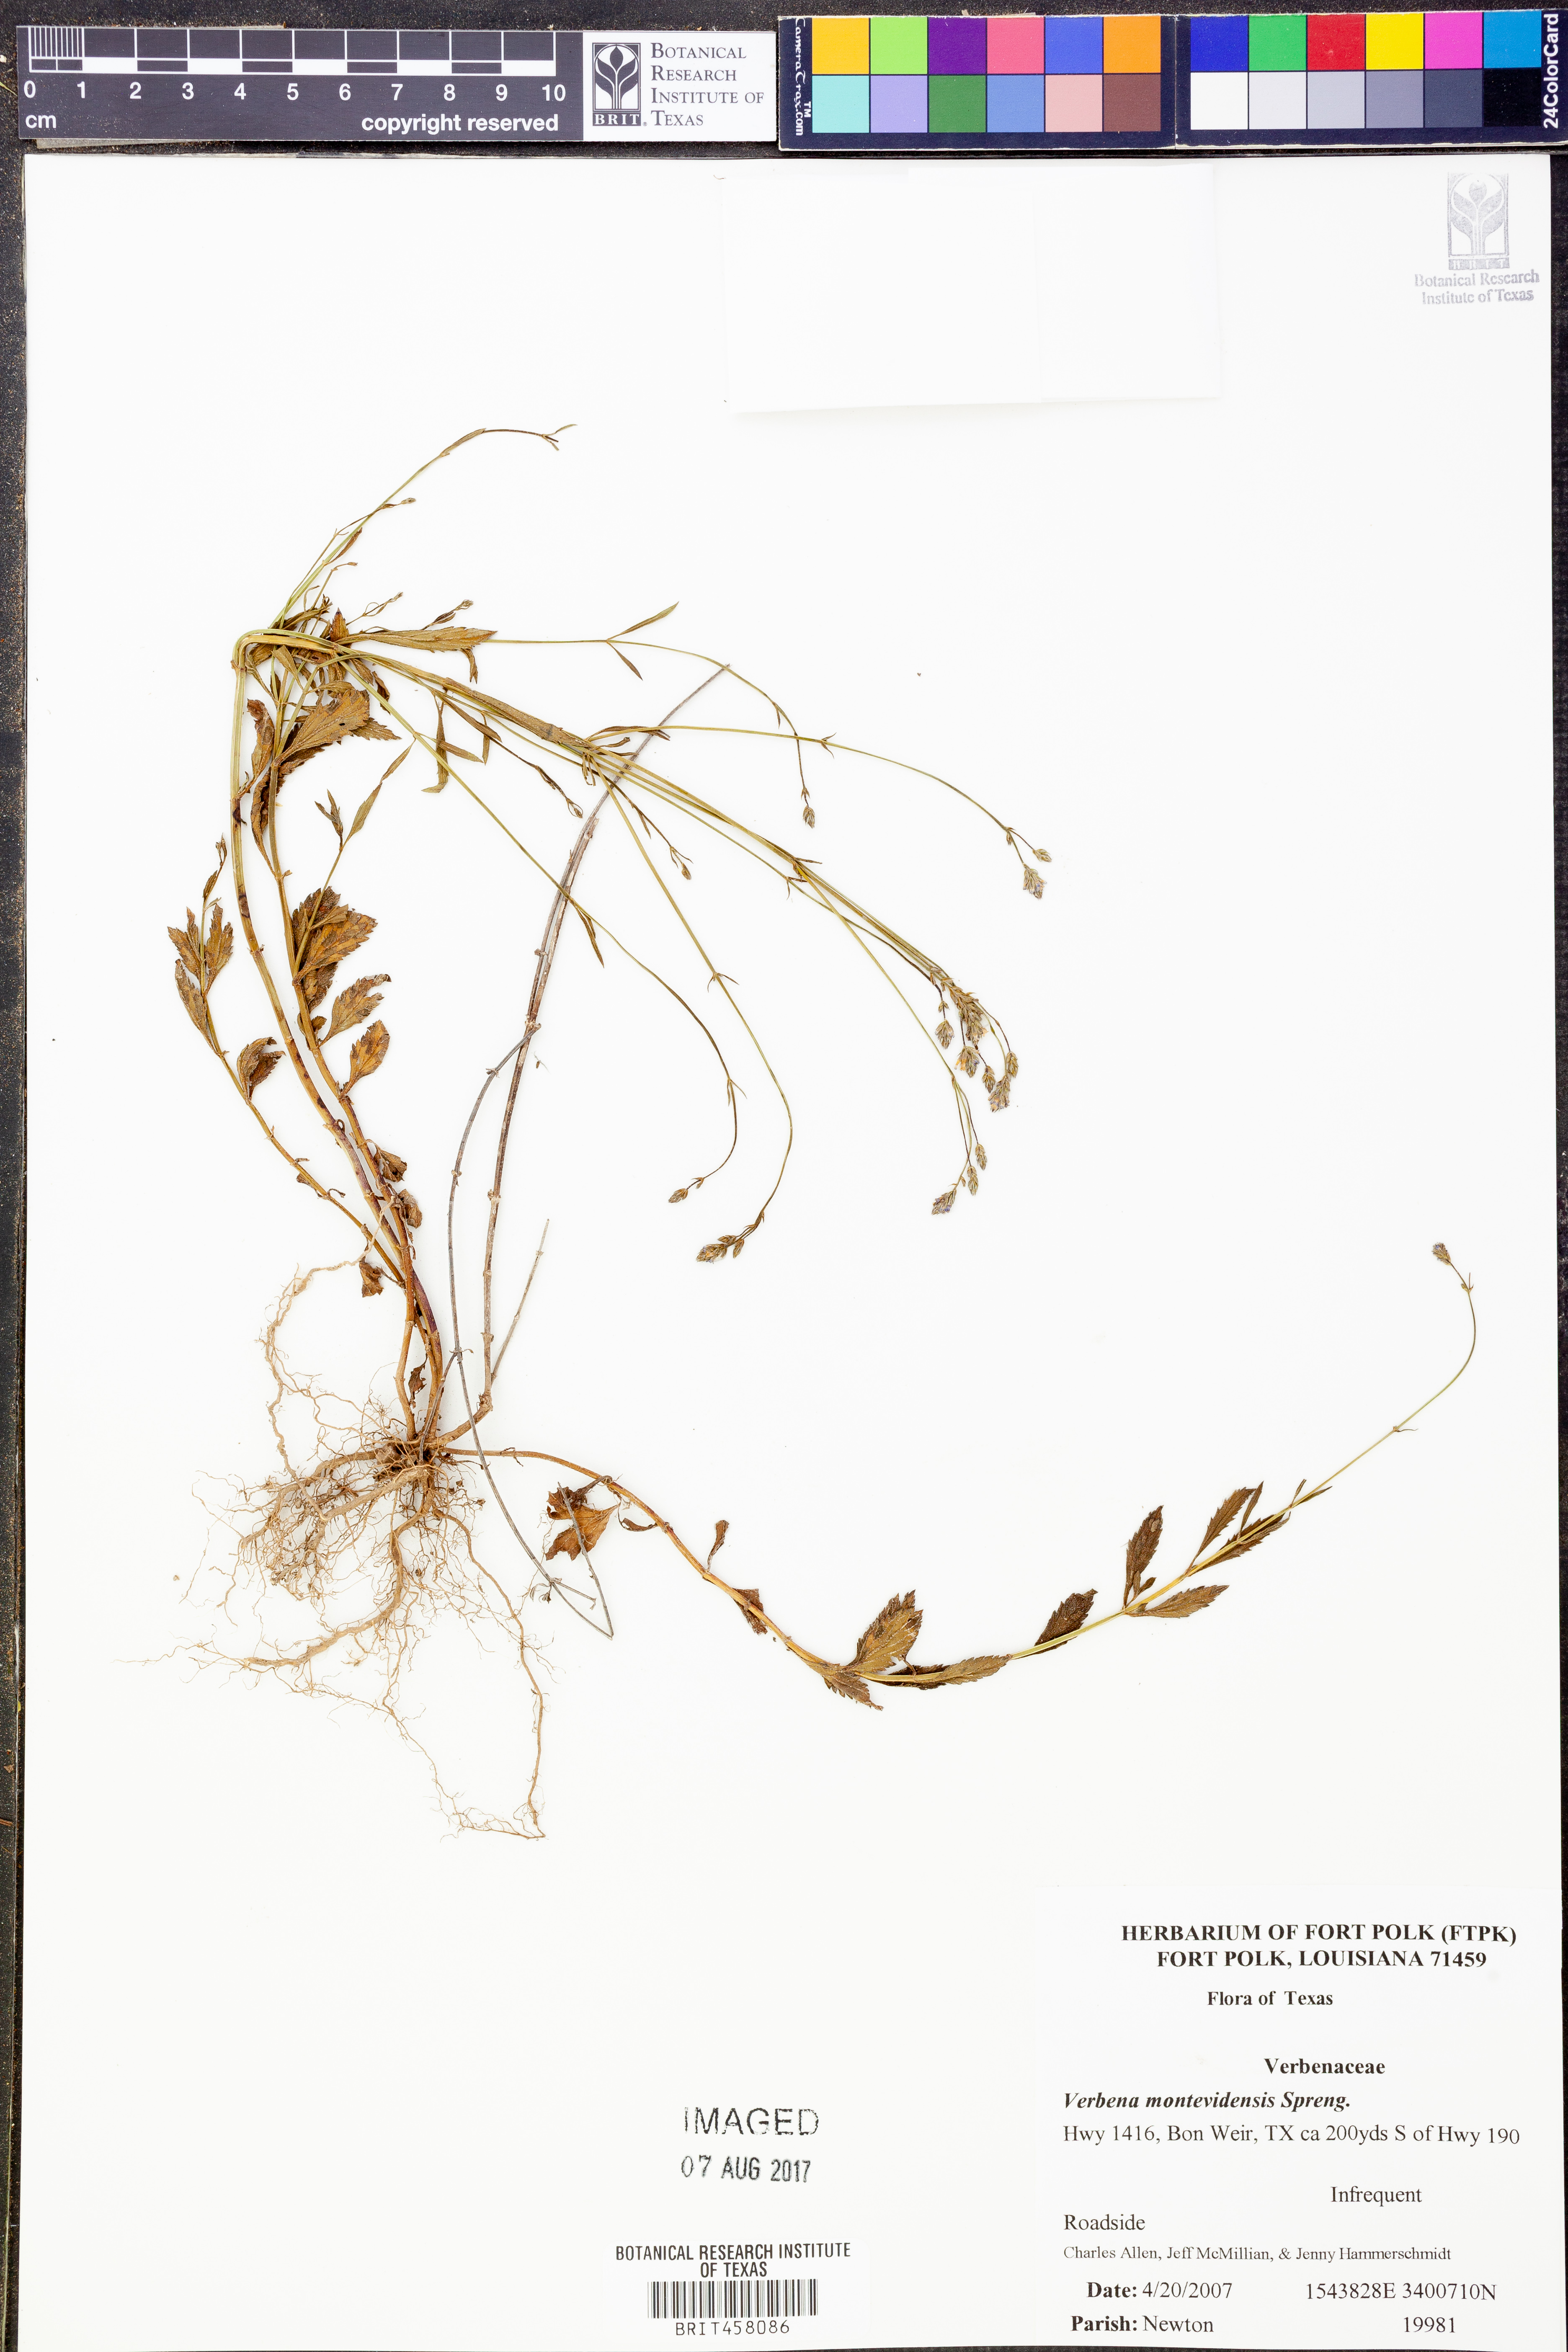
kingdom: Plantae
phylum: Tracheophyta
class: Magnoliopsida
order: Lamiales
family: Verbenaceae
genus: Verbena
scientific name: Verbena montevidensis
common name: Uruguayan vervain
